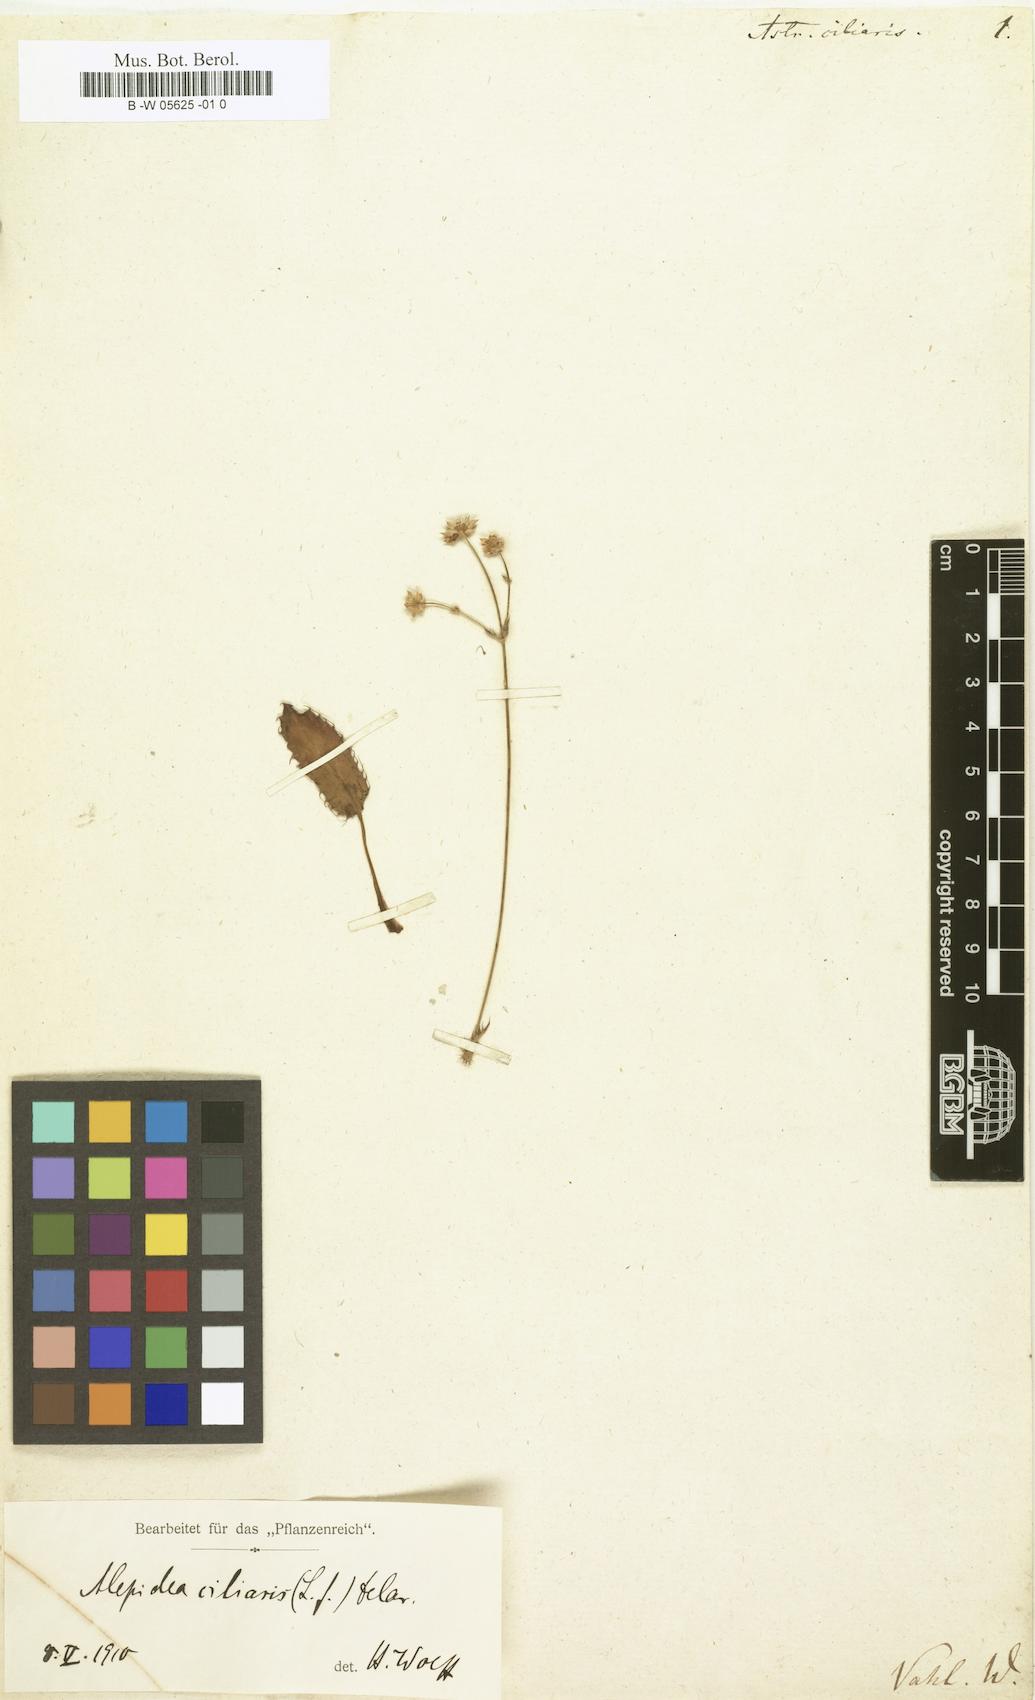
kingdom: Plantae
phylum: Tracheophyta
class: Magnoliopsida
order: Apiales
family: Apiaceae
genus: Alepidea
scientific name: Alepidea capensis
